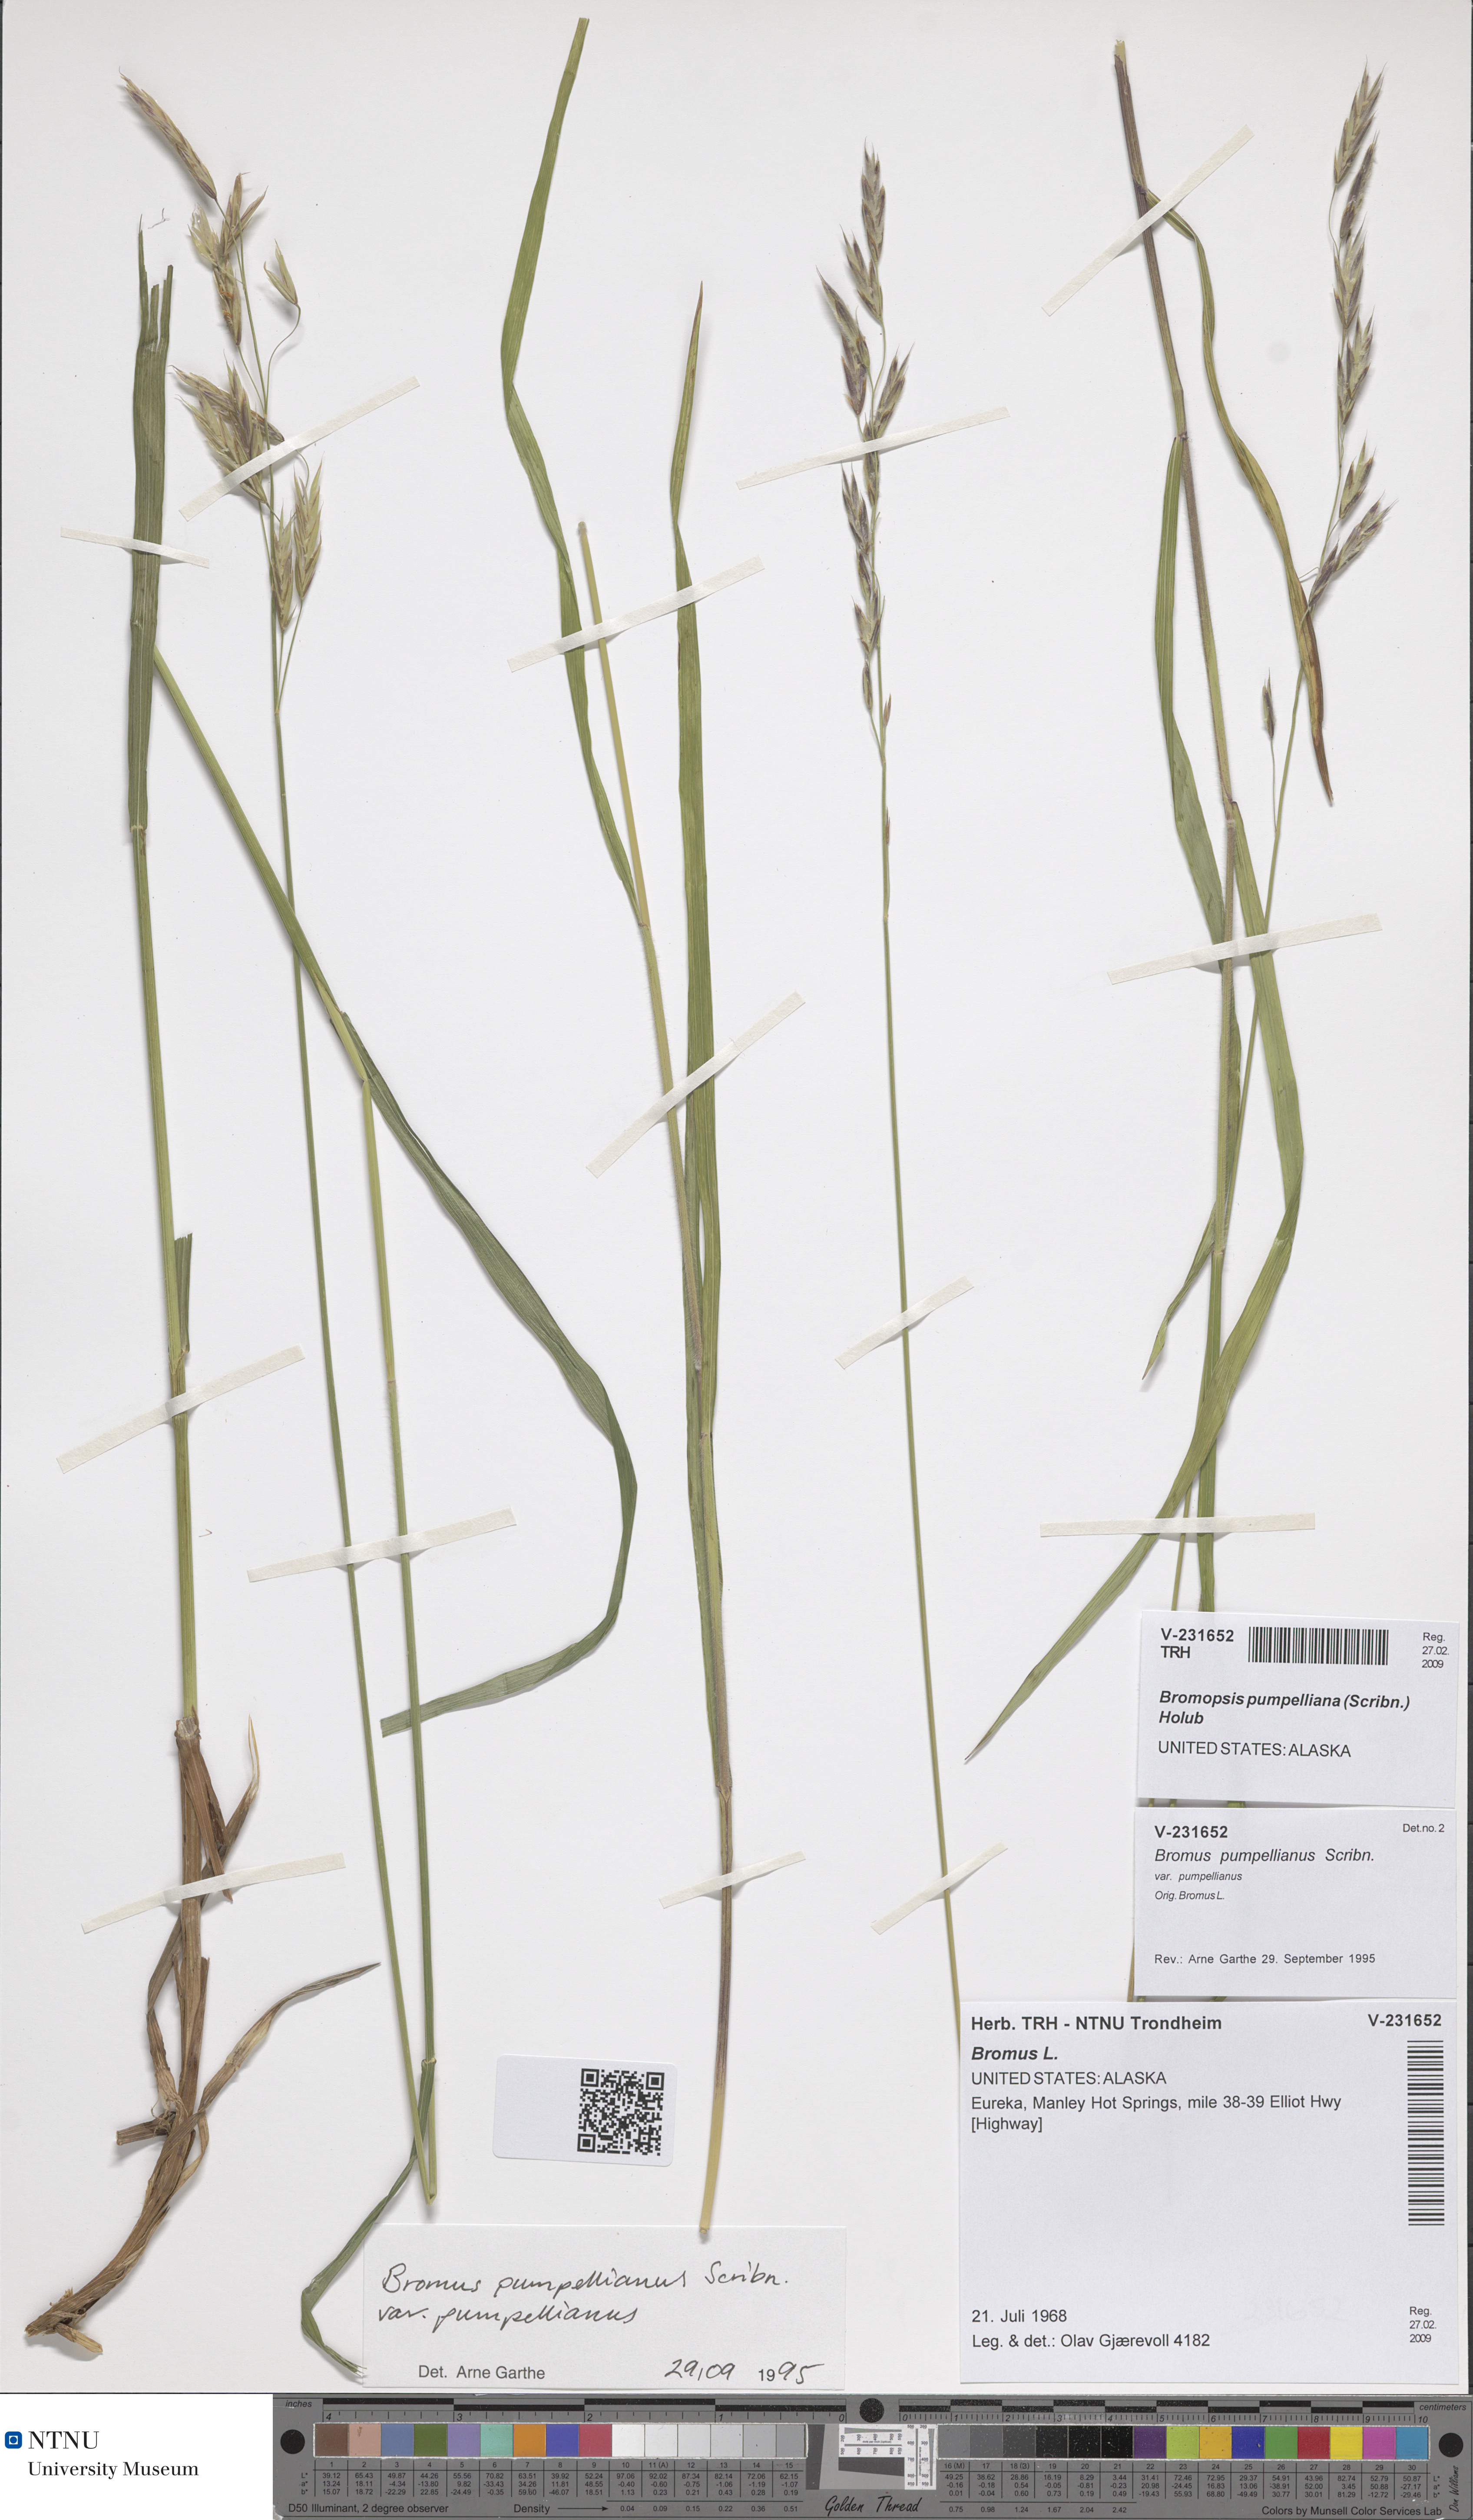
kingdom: Plantae
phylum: Tracheophyta
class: Liliopsida
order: Poales
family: Poaceae
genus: Bromus
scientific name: Bromus pumpellianus
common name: Pumpelly's brome
